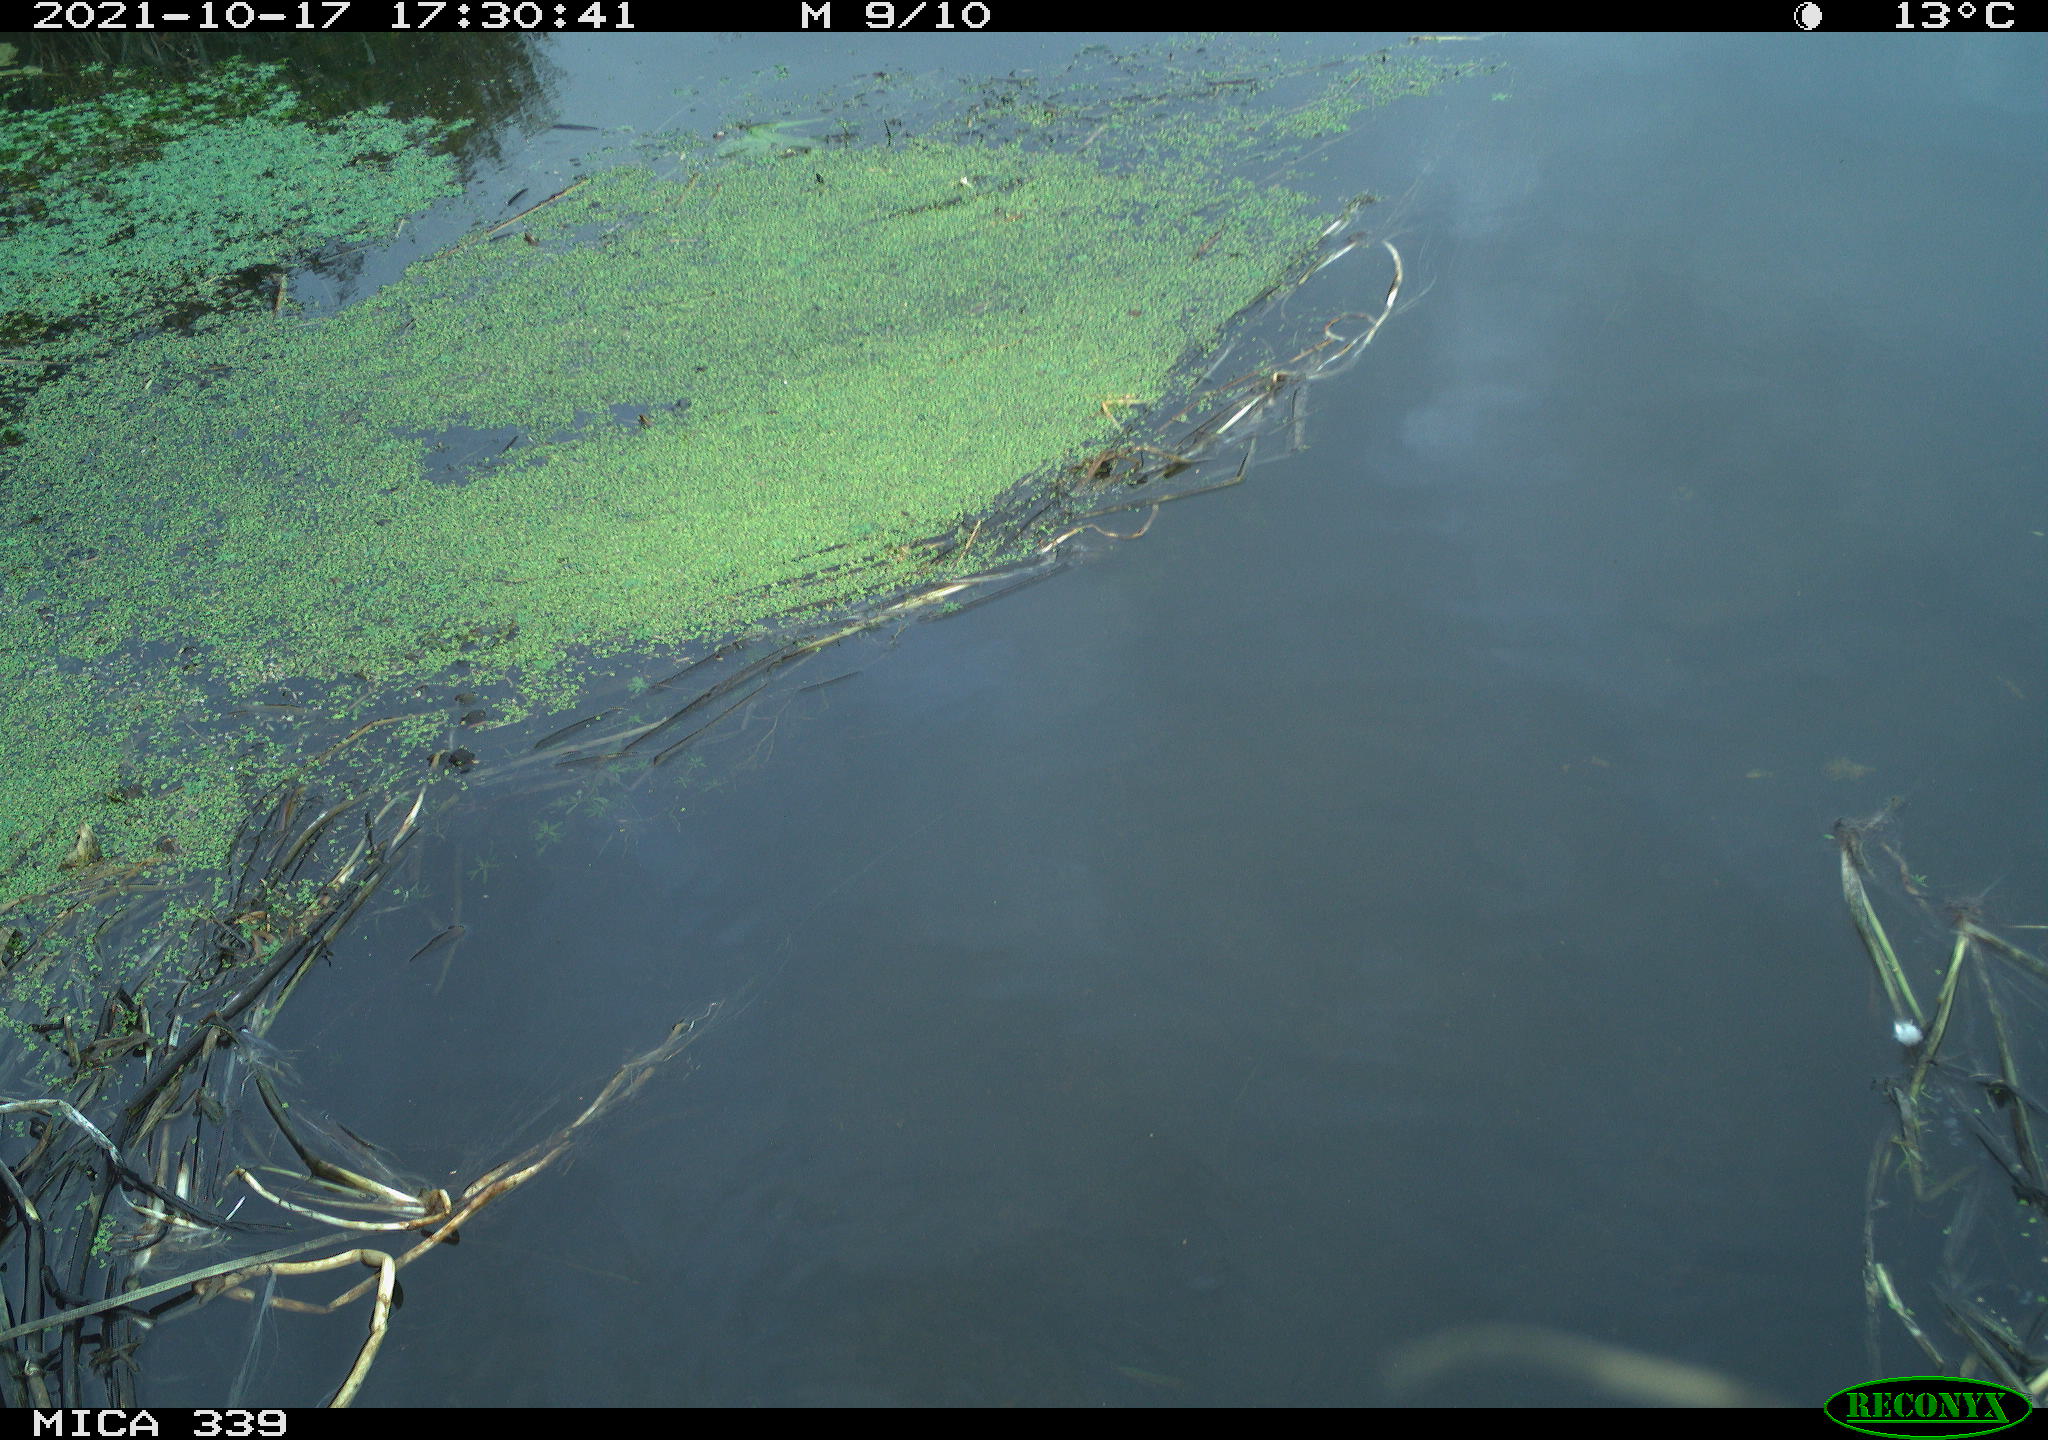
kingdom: Animalia
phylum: Chordata
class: Aves
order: Gruiformes
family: Rallidae
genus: Fulica
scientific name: Fulica atra
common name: Eurasian coot
